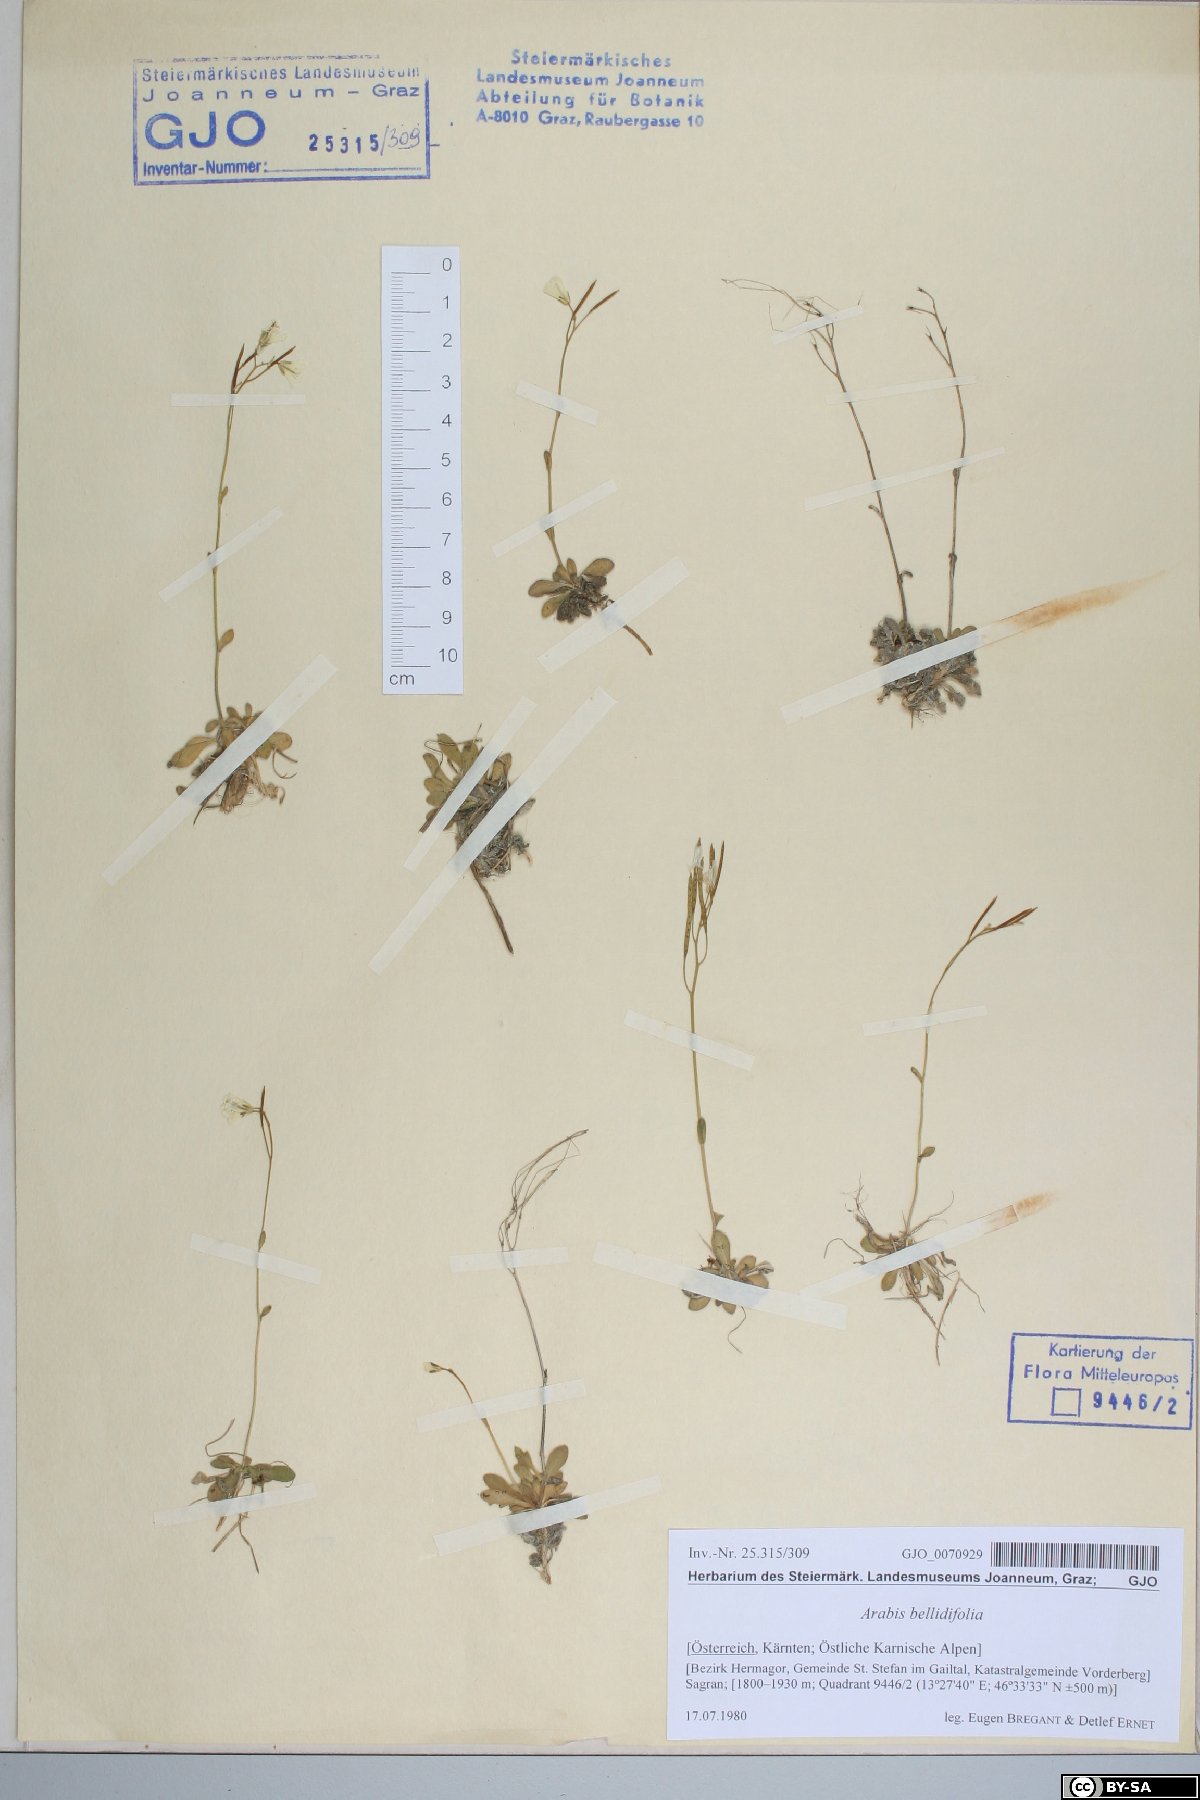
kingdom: Plantae
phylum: Tracheophyta
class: Magnoliopsida
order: Brassicales
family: Brassicaceae
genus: Arabis
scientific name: Arabis soyeri
